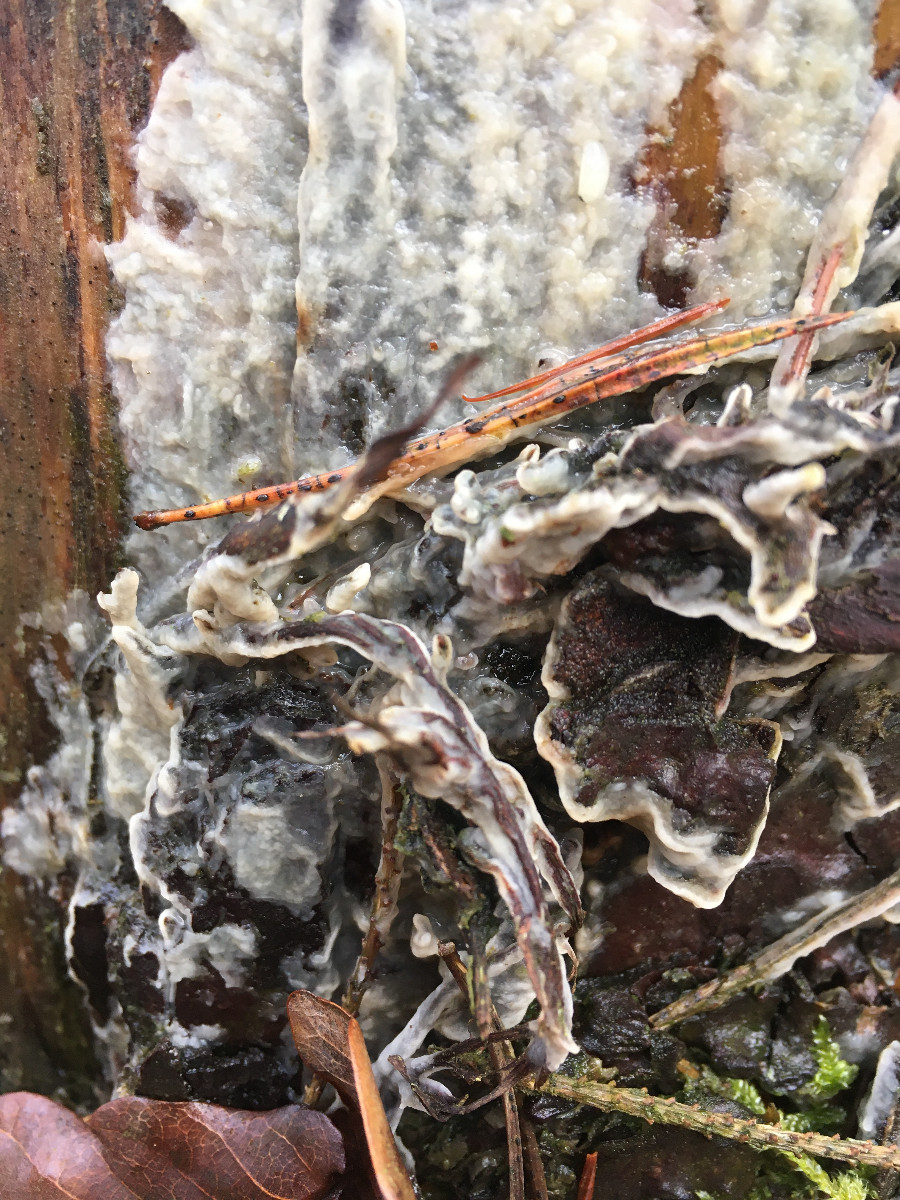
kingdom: Fungi
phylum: Basidiomycota
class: Agaricomycetes
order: Polyporales
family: Phanerochaetaceae
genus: Phlebiopsis
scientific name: Phlebiopsis gigantea
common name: kæmpebarksvamp
